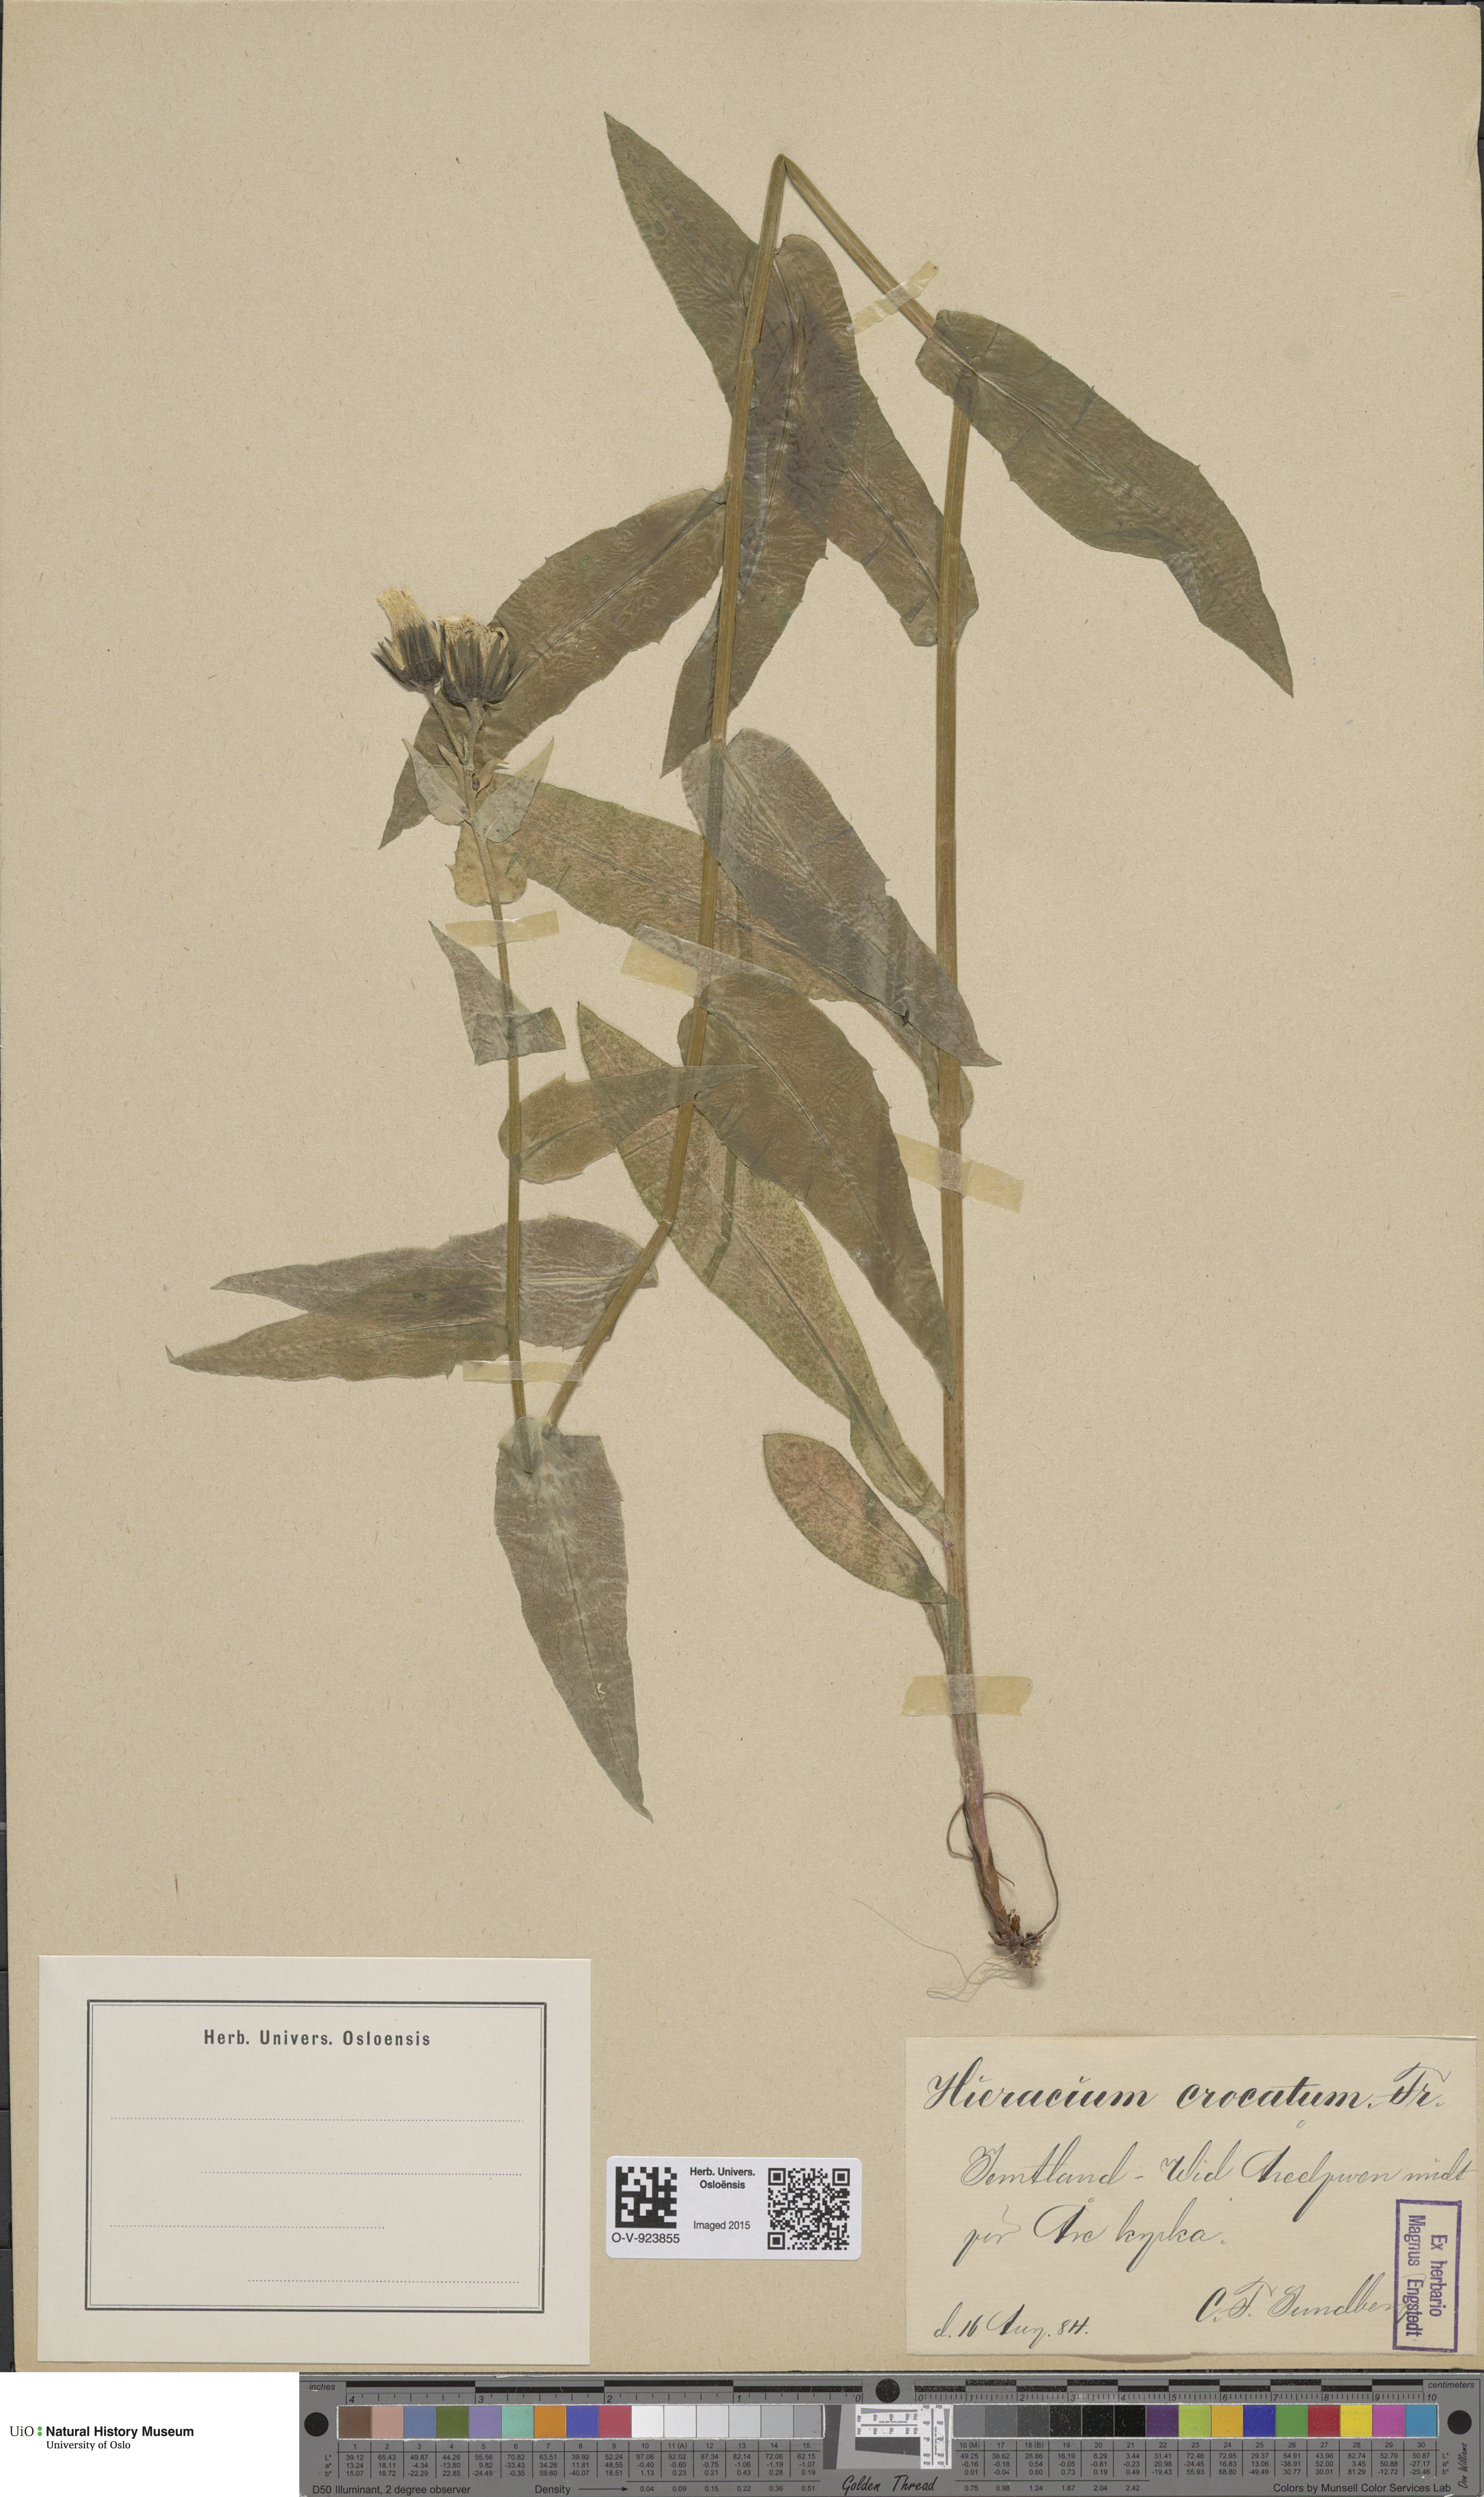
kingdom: Plantae
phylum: Tracheophyta
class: Magnoliopsida
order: Asterales
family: Asteraceae
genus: Hieracium
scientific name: Hieracium crocatum
